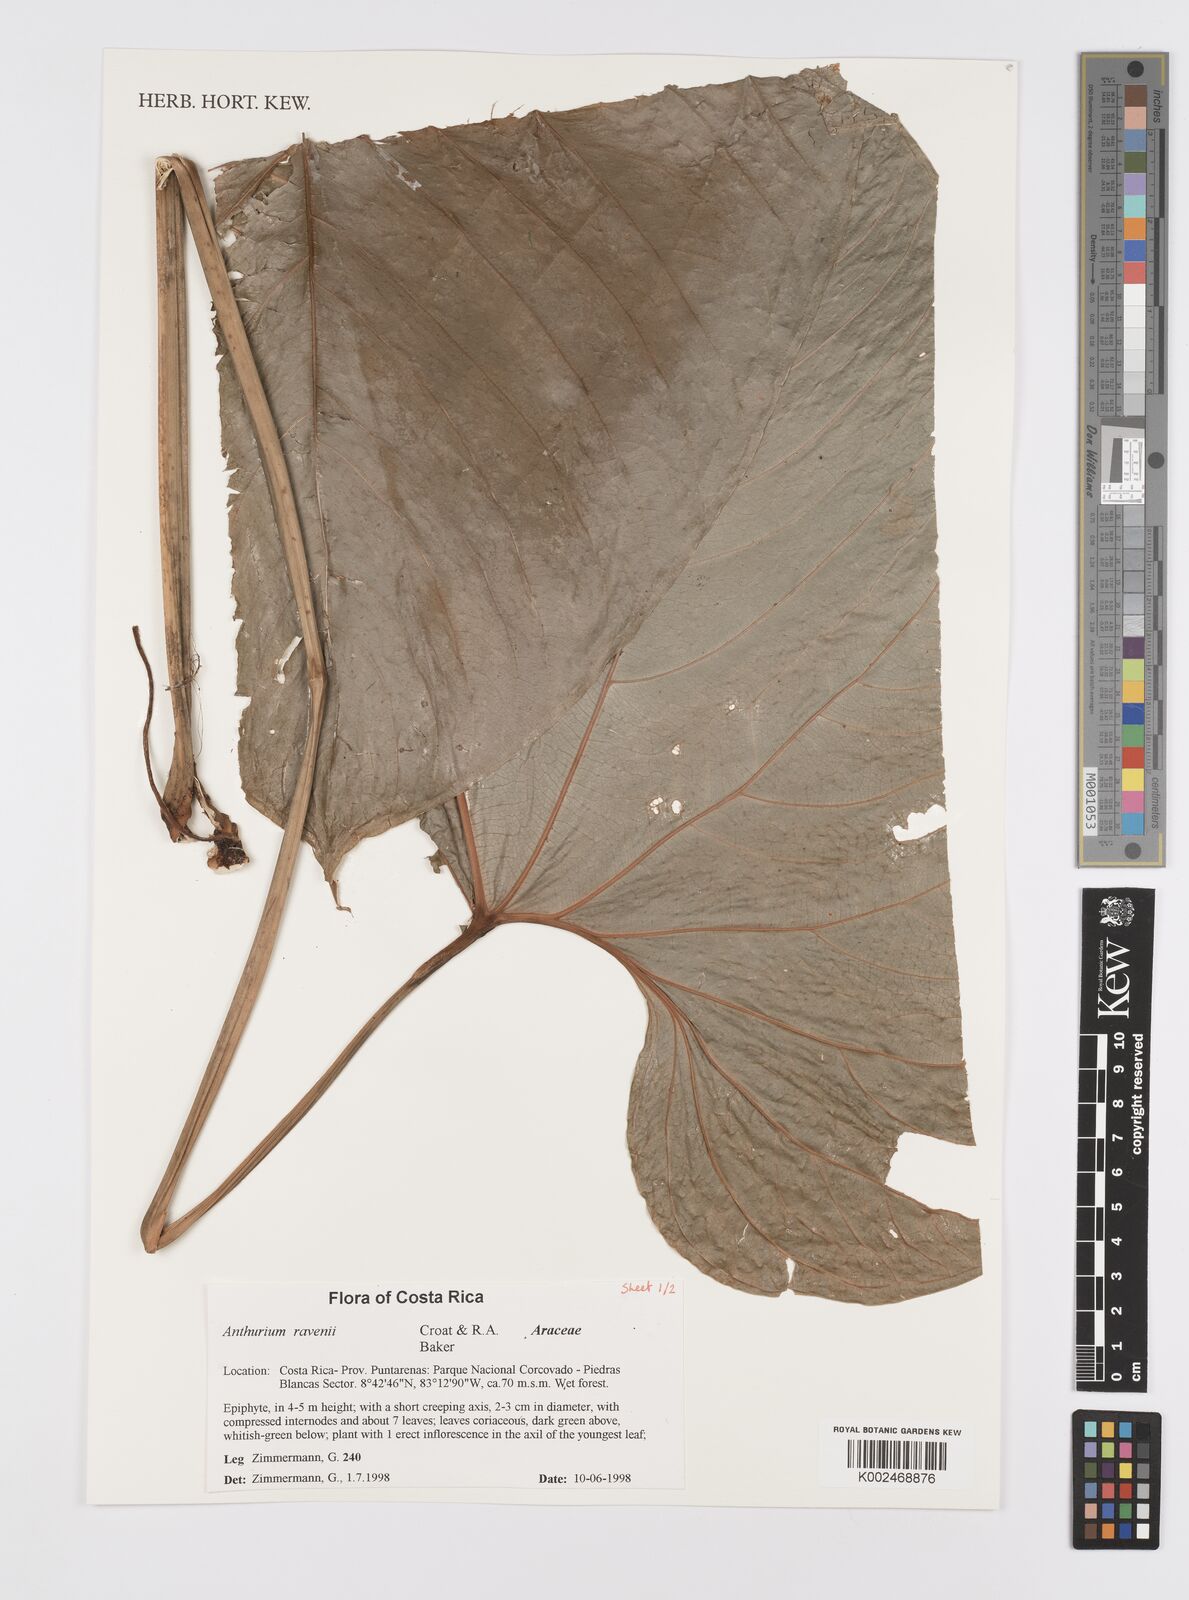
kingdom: Plantae
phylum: Tracheophyta
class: Liliopsida
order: Alismatales
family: Araceae
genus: Anthurium
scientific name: Anthurium ravenii
